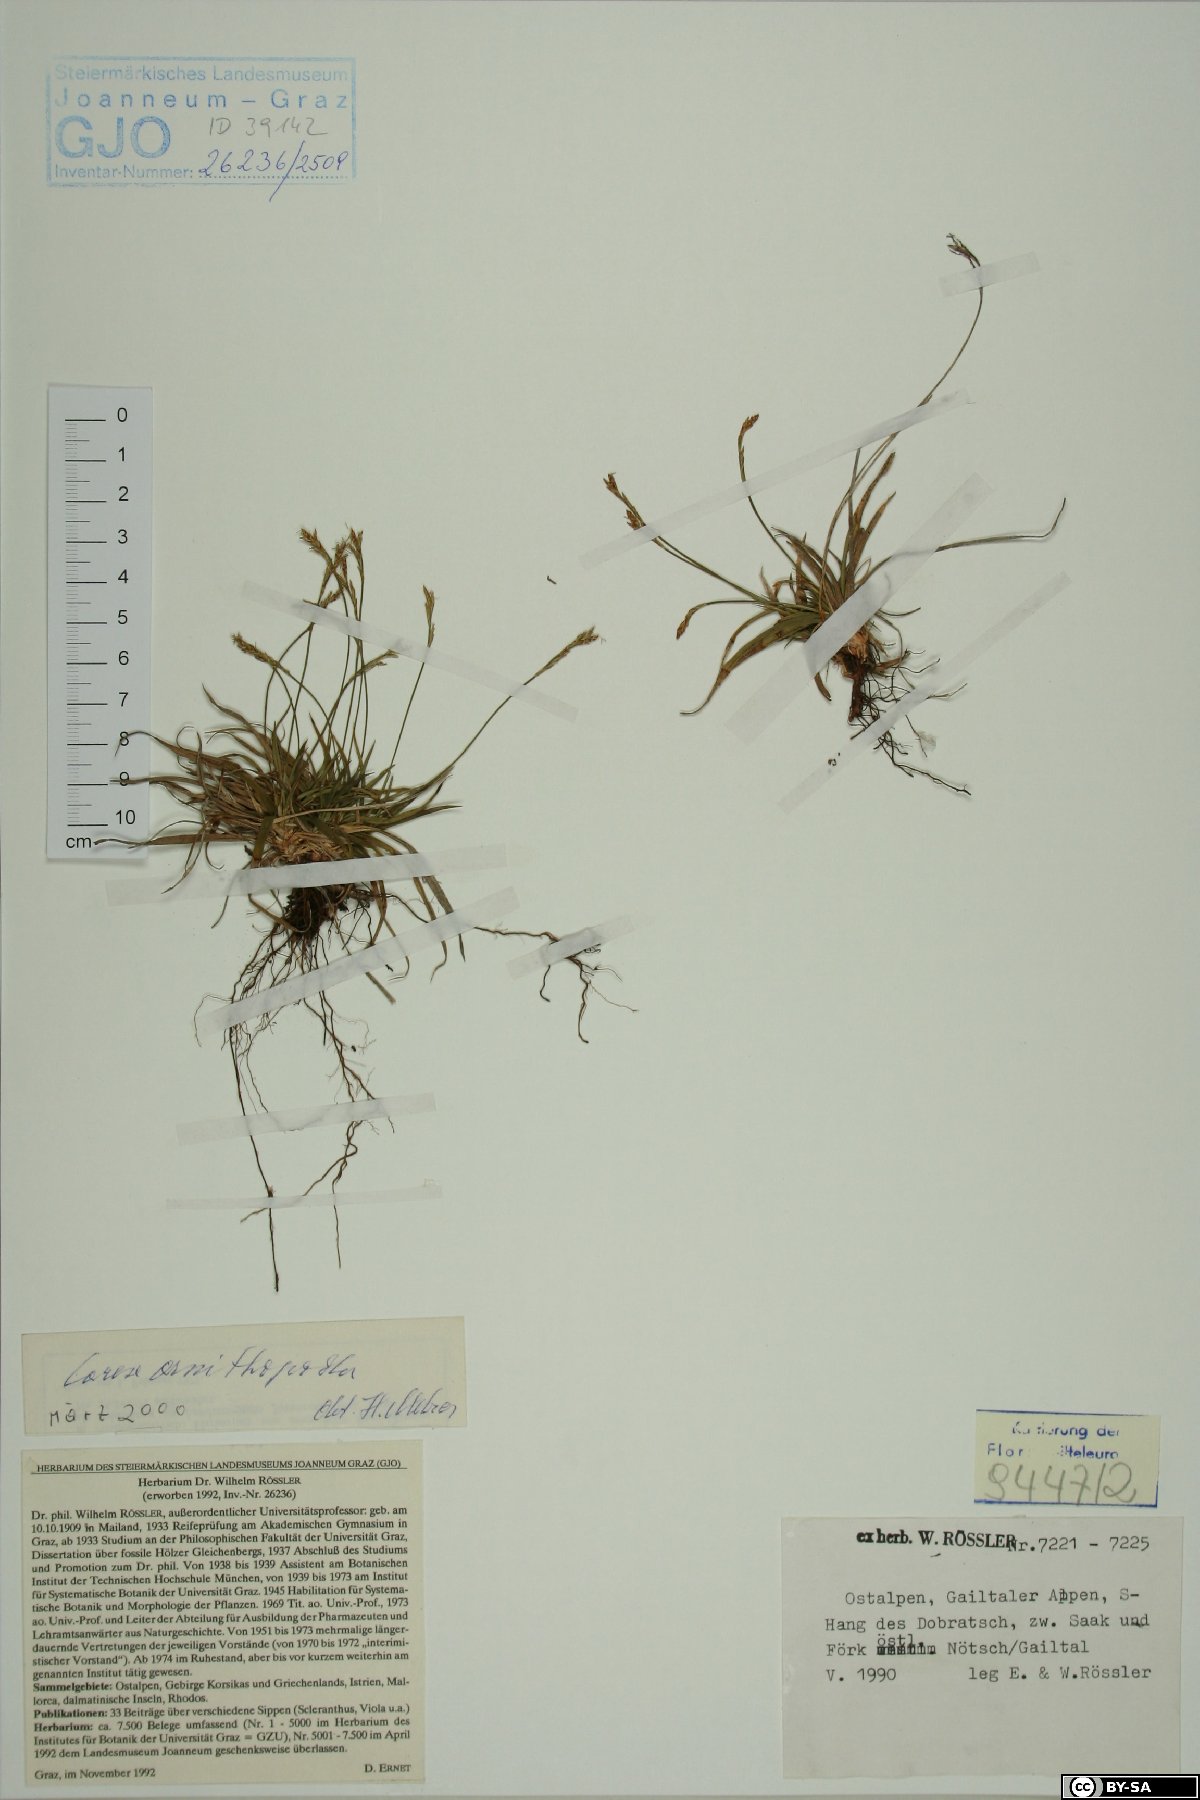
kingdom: Plantae
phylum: Tracheophyta
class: Liliopsida
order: Poales
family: Cyperaceae
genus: Carex
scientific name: Carex ornithopoda
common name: Bird's-foot sedge
